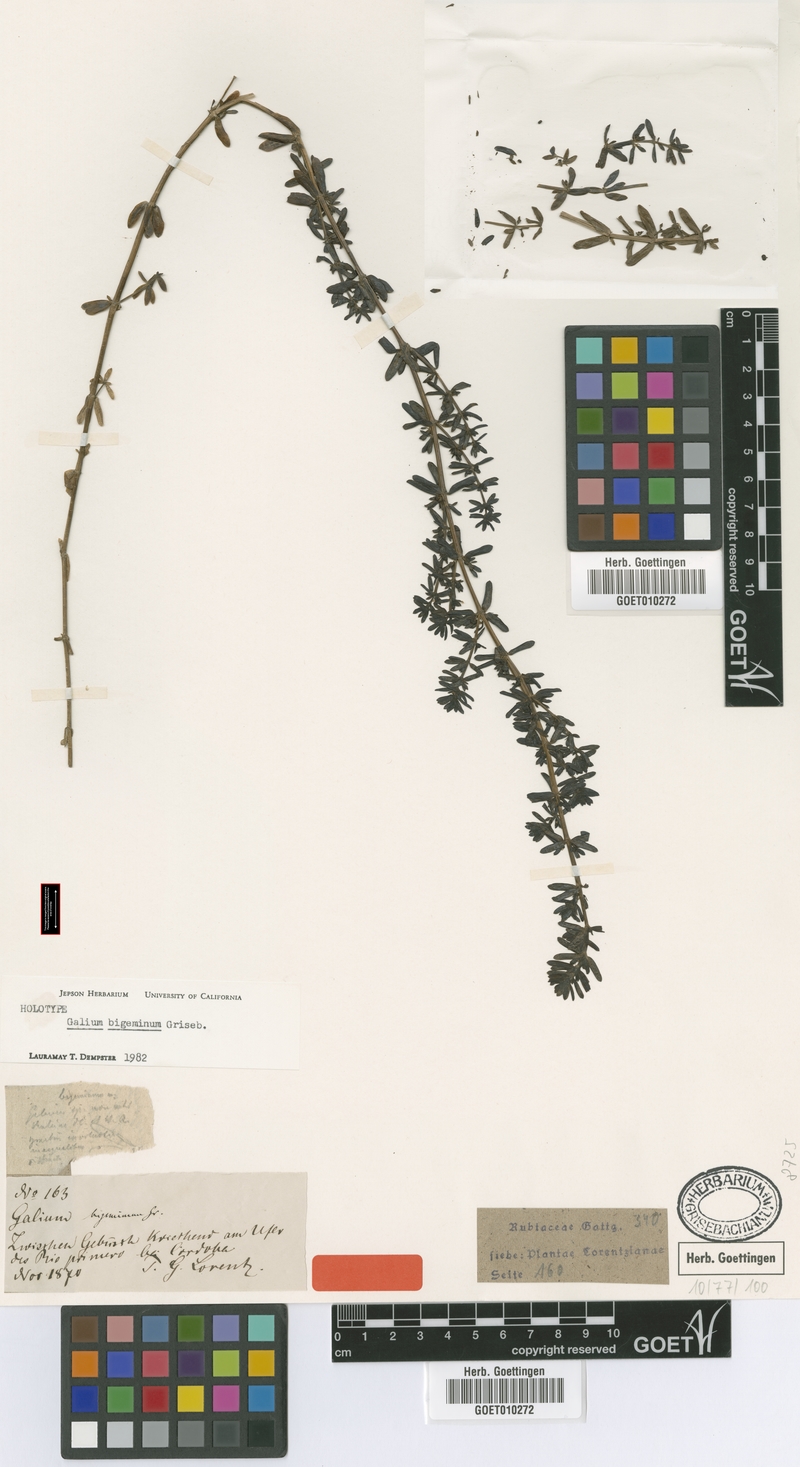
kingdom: Plantae
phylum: Tracheophyta
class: Magnoliopsida
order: Gentianales
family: Rubiaceae
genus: Galium
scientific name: Galium bigeminum
